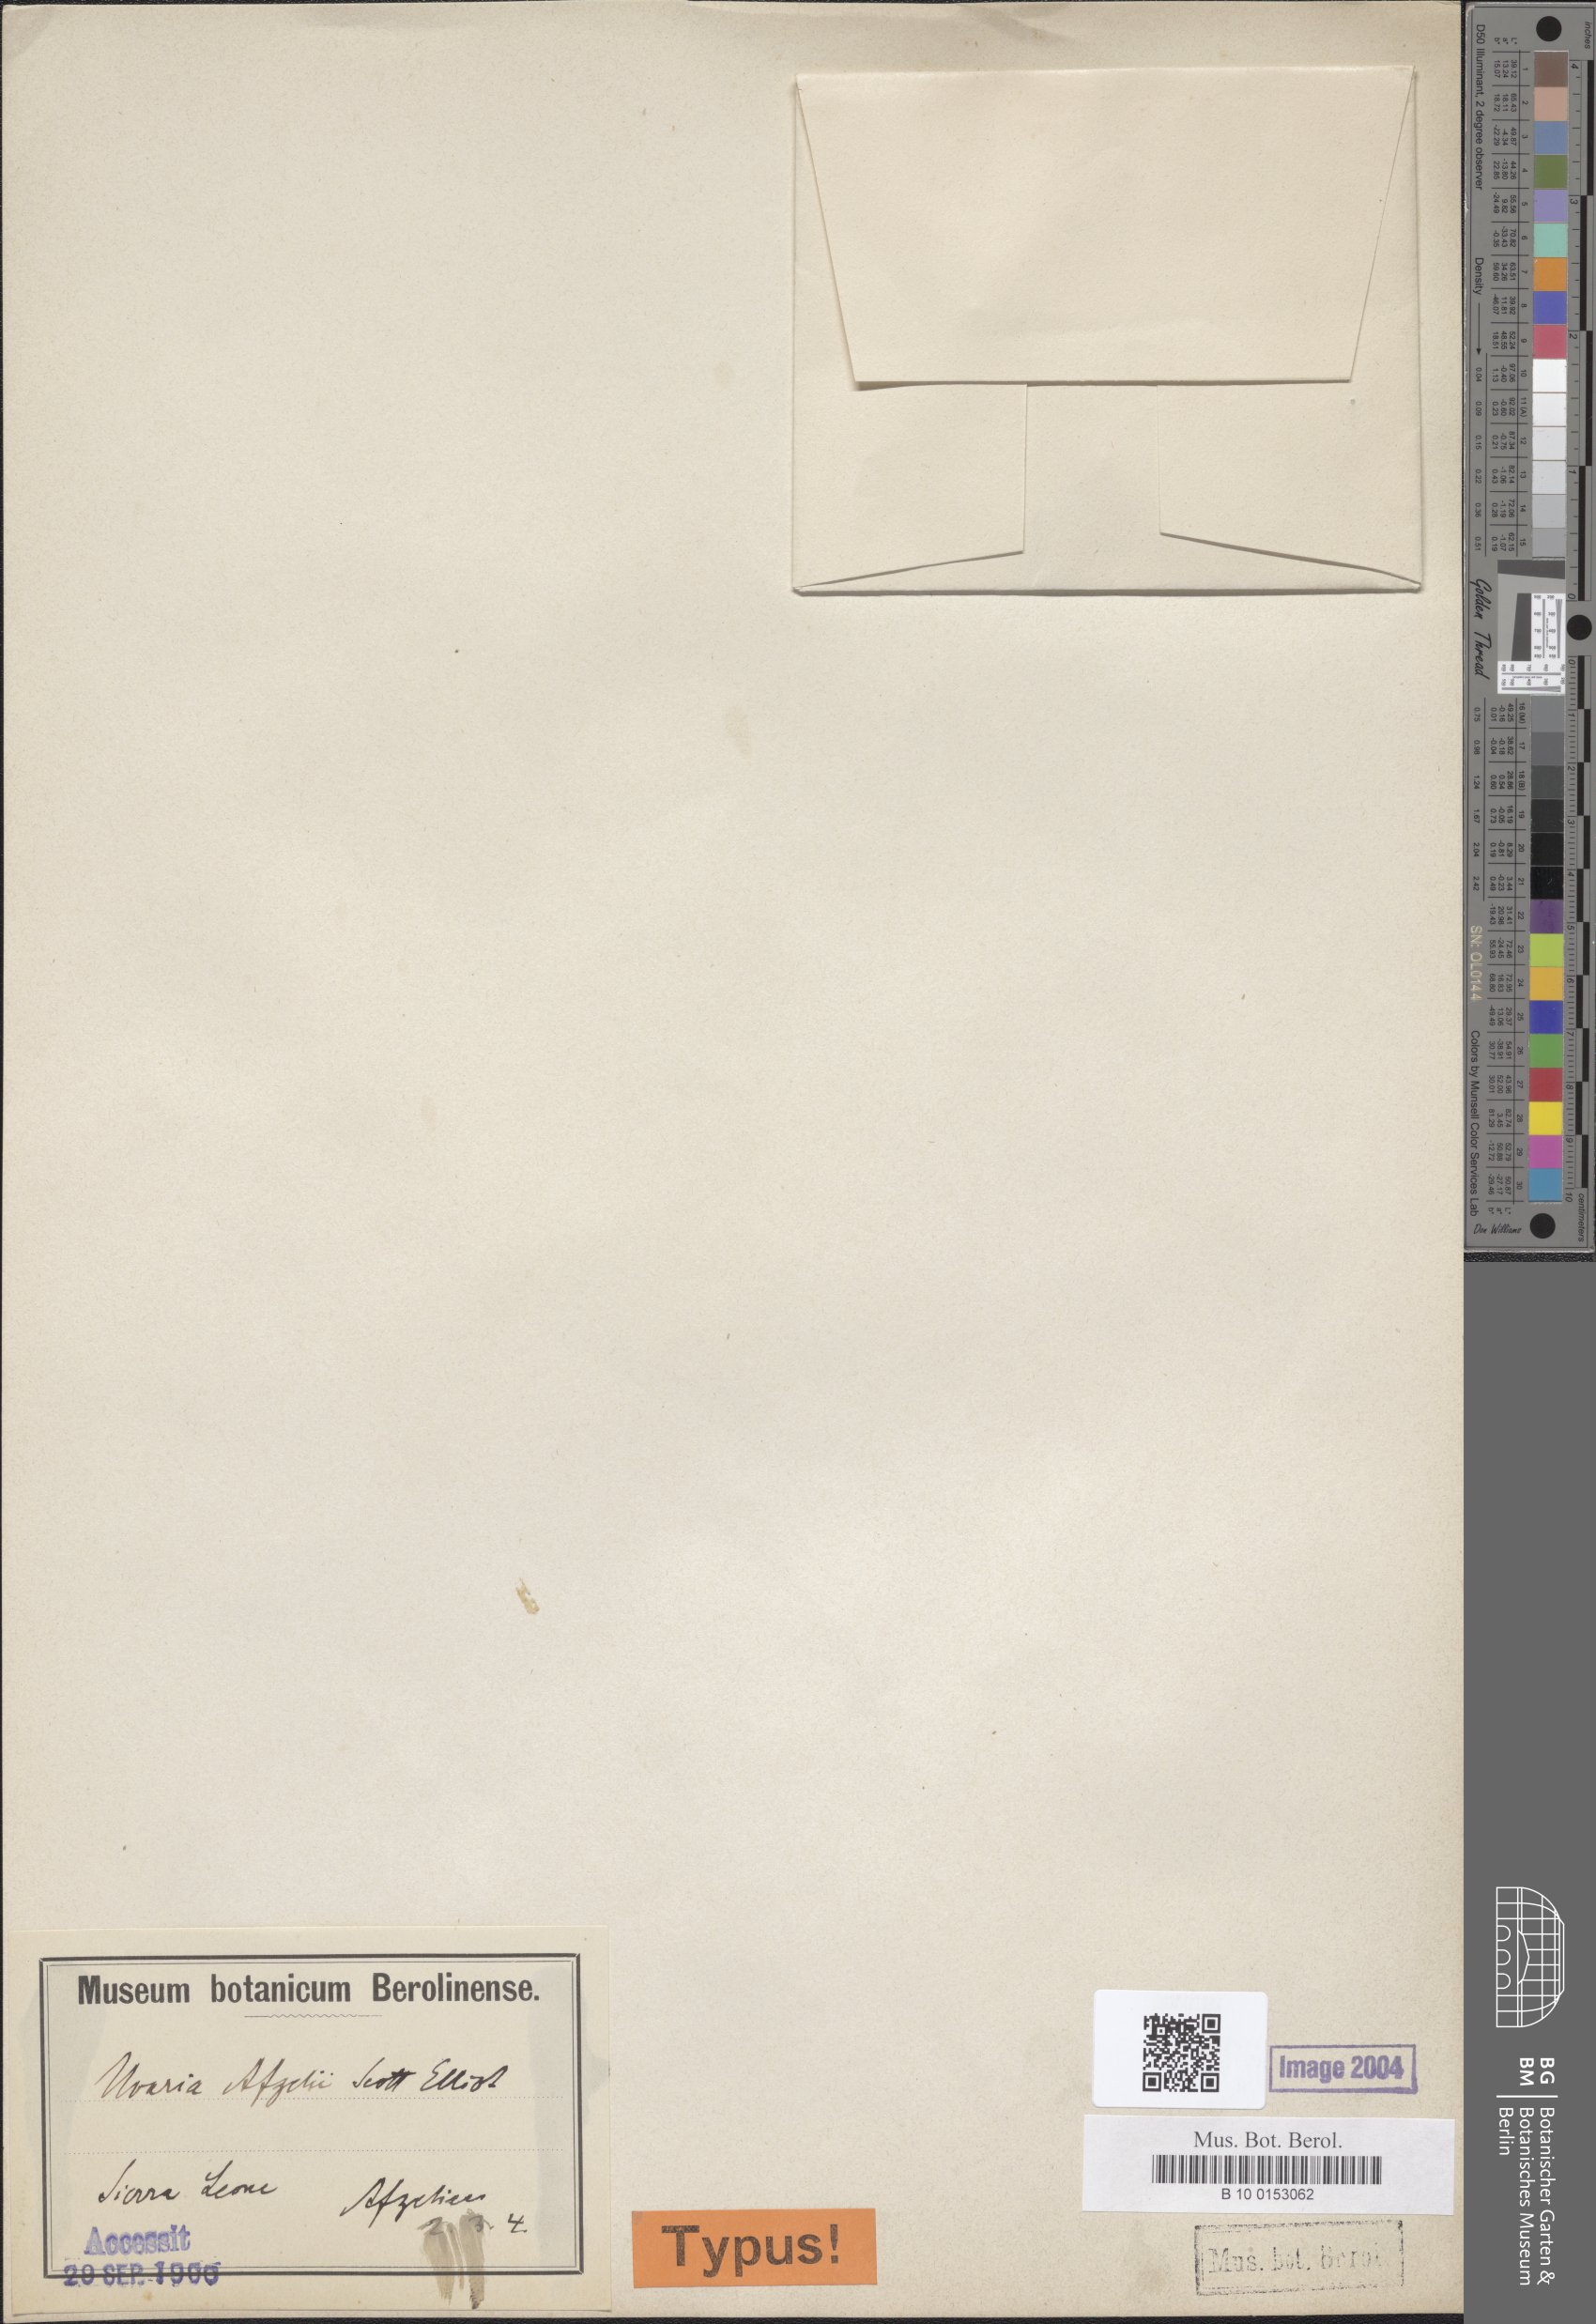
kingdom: Plantae
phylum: Tracheophyta
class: Magnoliopsida
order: Magnoliales
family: Annonaceae
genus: Uvaria
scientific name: Uvaria afzelii
